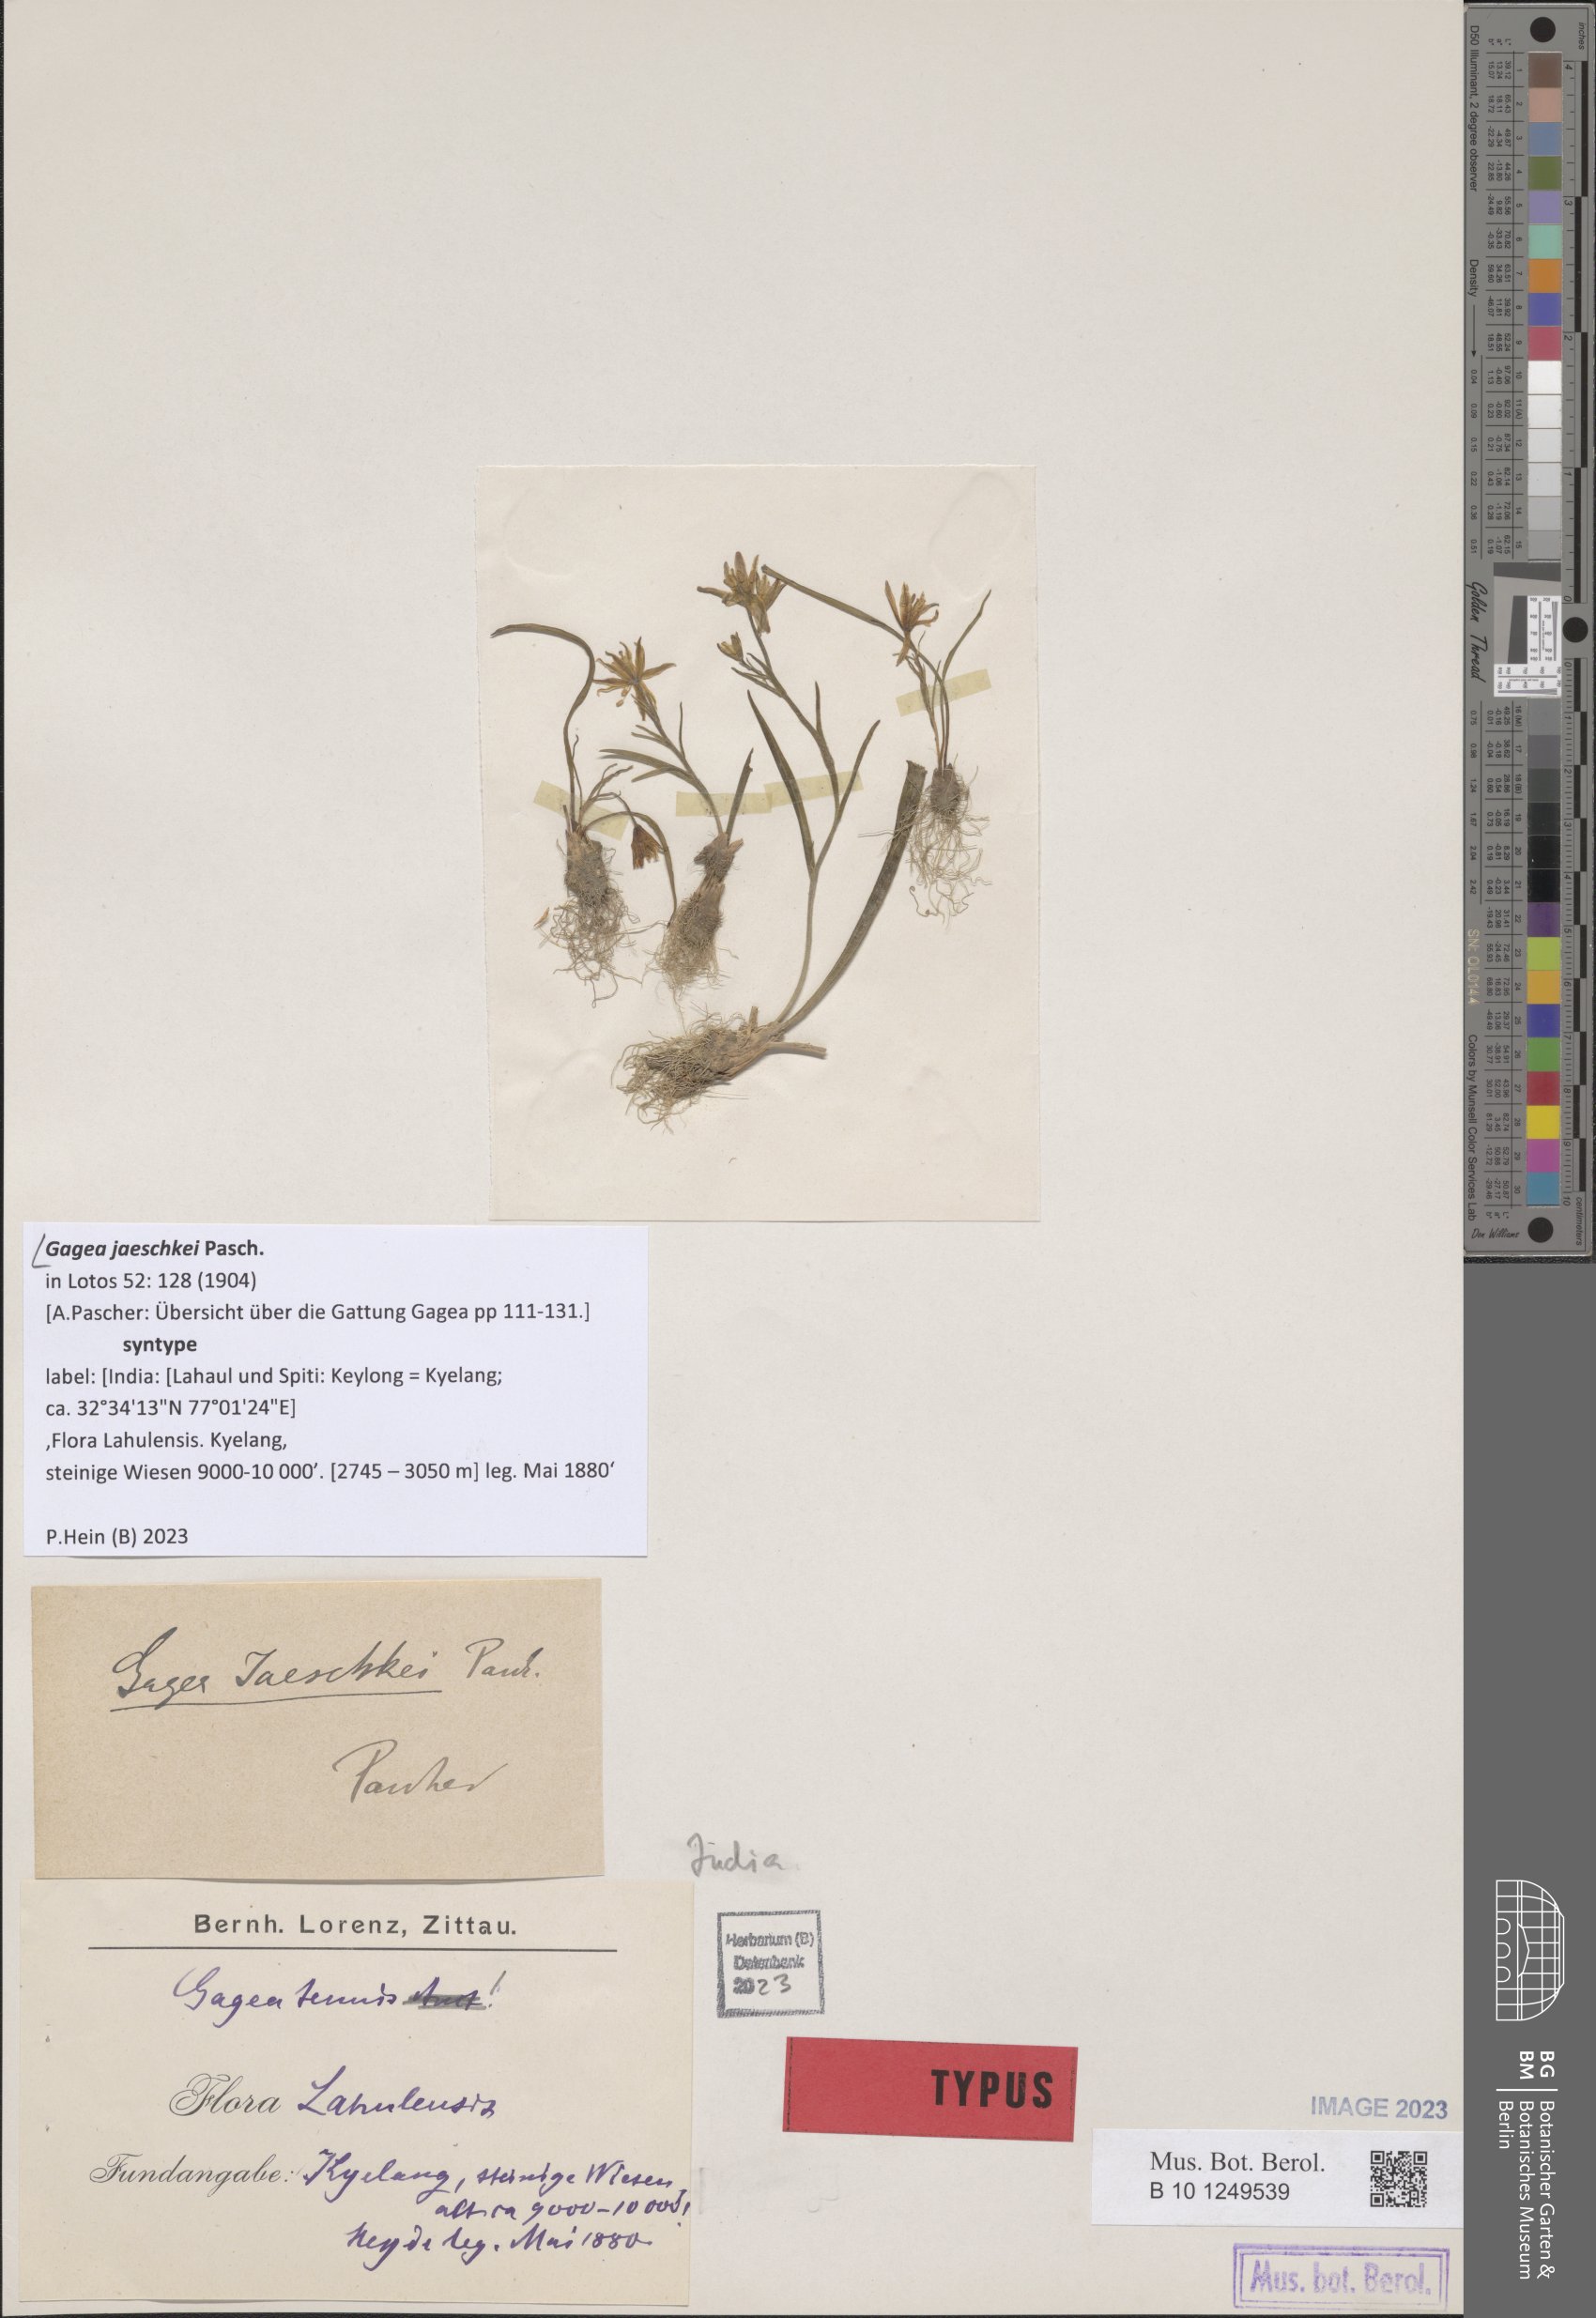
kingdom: Plantae
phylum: Tracheophyta
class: Liliopsida
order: Liliales
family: Liliaceae
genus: Gagea
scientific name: Gagea jaeschkei
